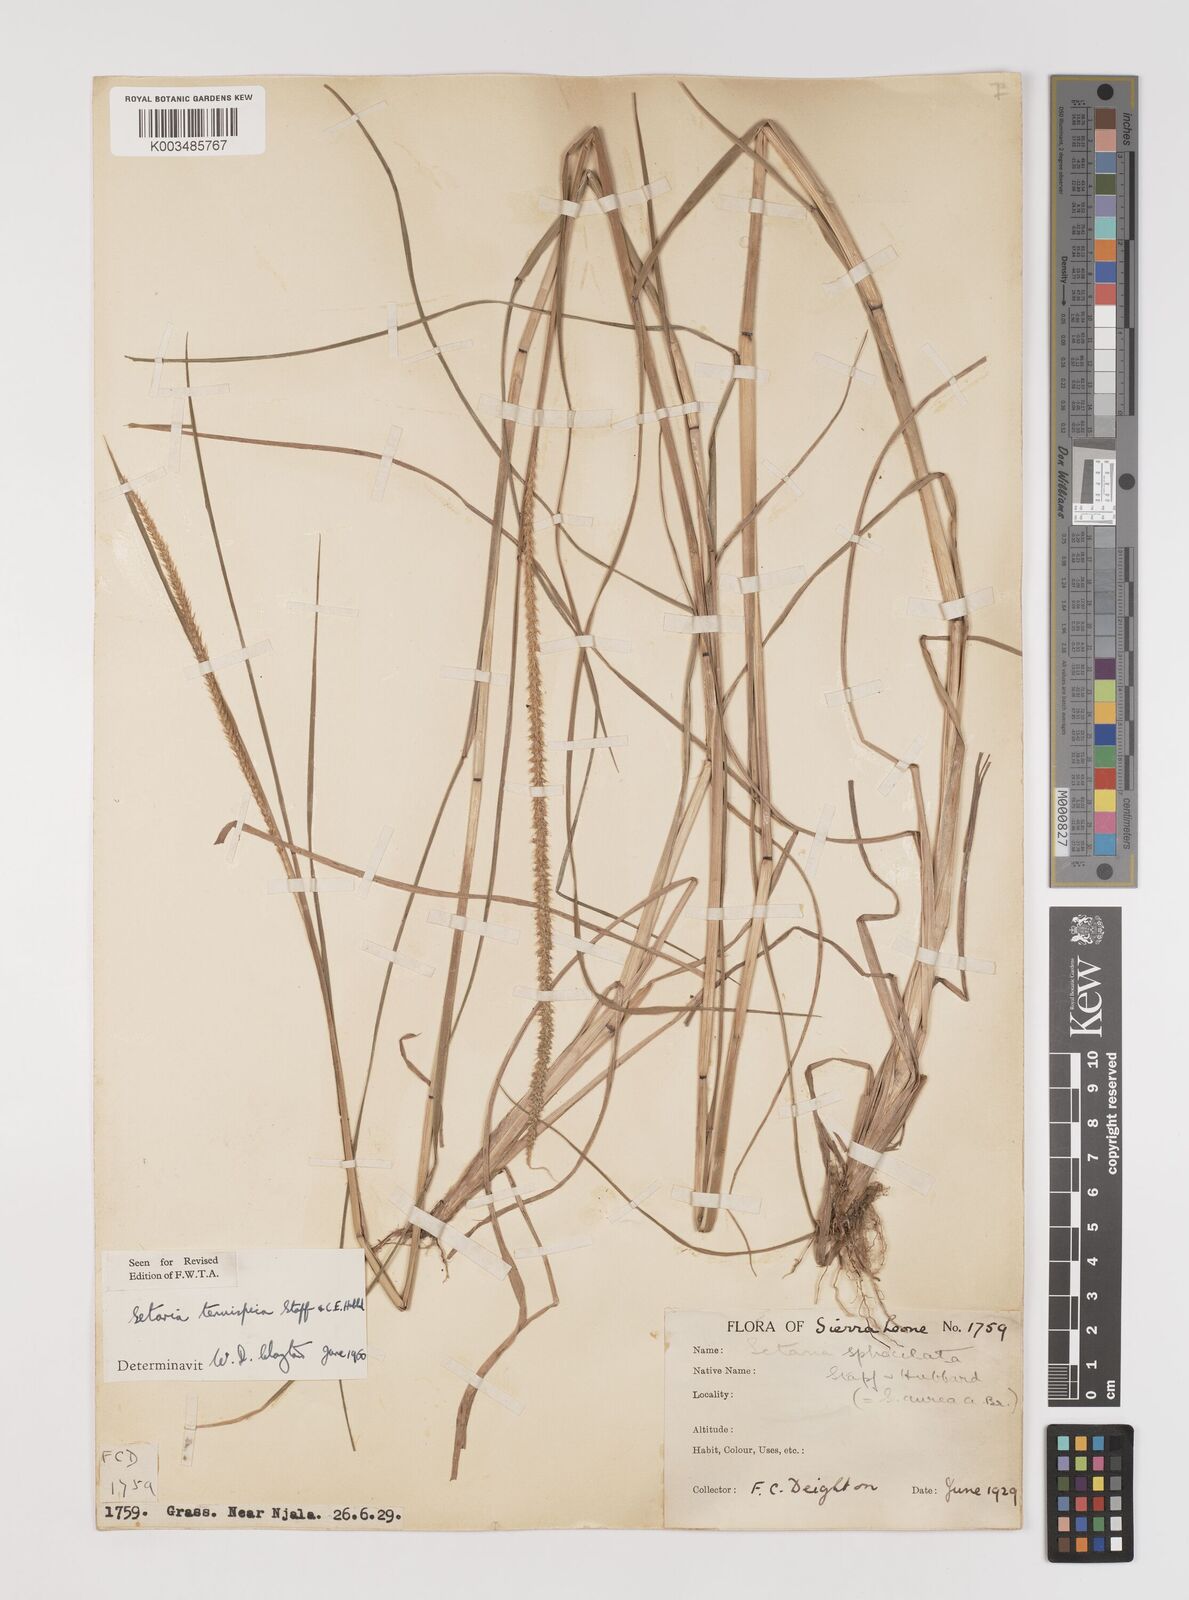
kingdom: Plantae
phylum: Tracheophyta
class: Liliopsida
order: Poales
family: Poaceae
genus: Setaria
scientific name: Setaria sphacelata
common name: African bristlegrass
